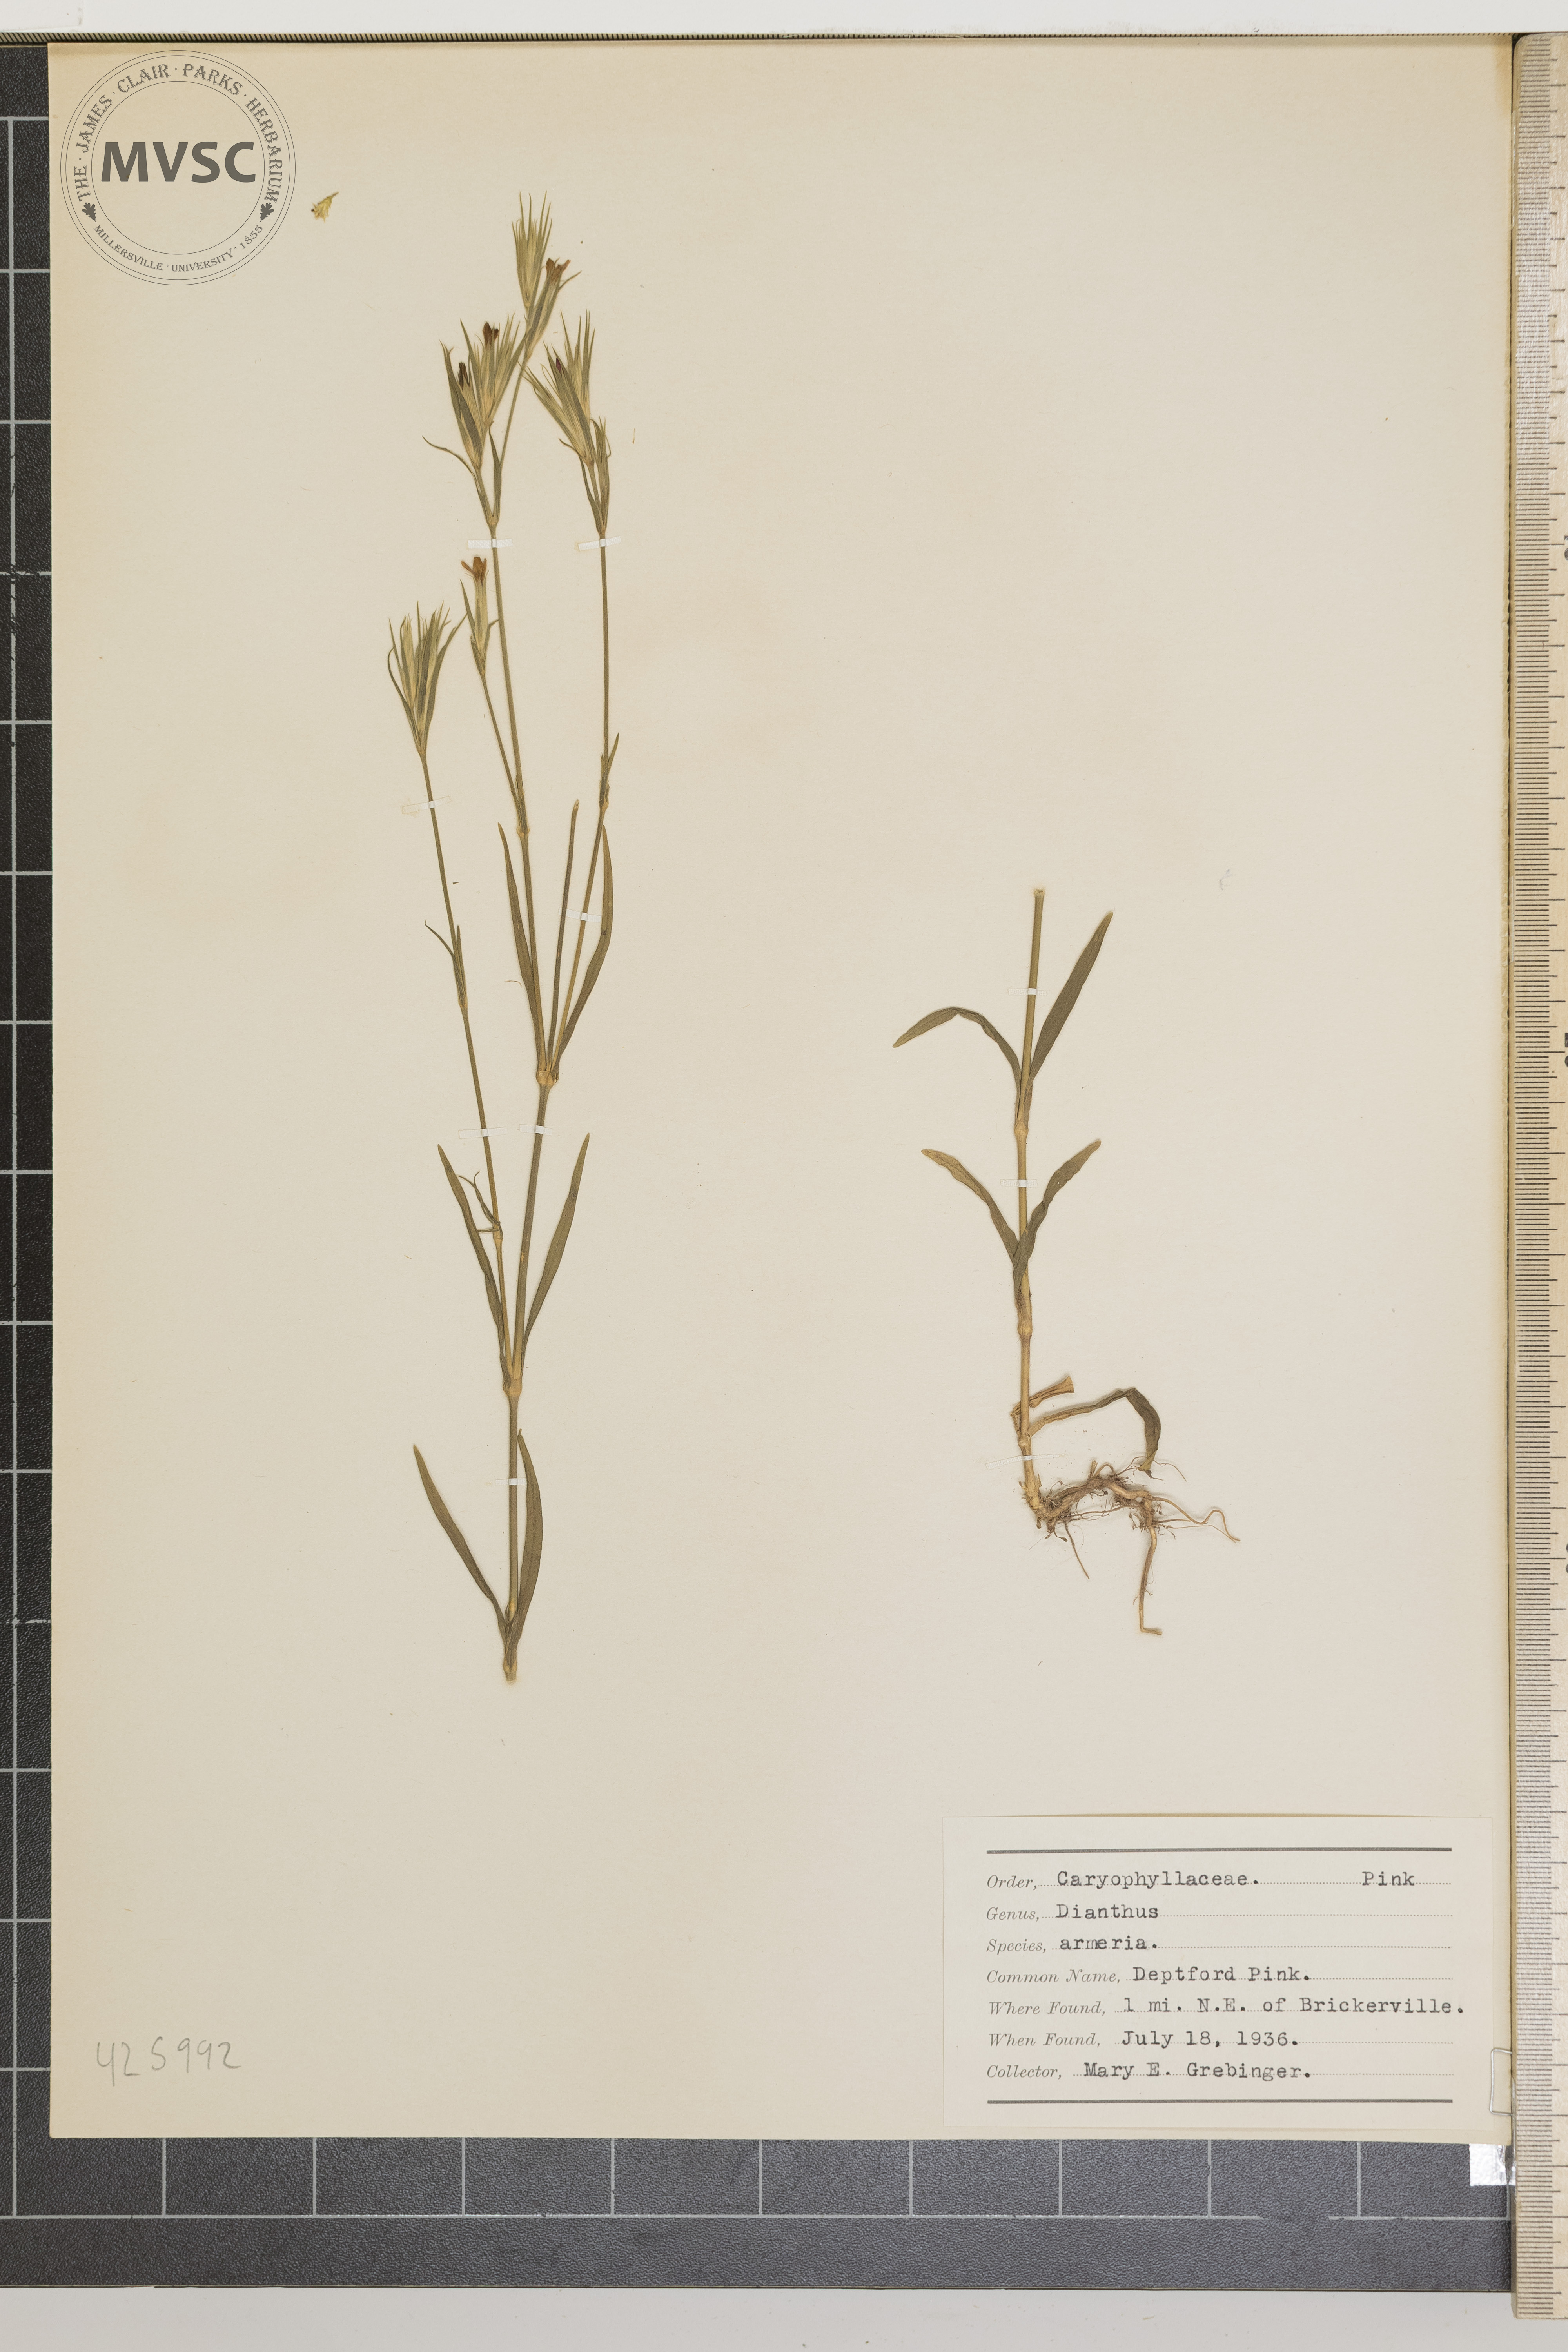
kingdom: Plantae
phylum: Tracheophyta
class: Magnoliopsida
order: Caryophyllales
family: Caryophyllaceae
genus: Dianthus
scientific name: Dianthus armeria
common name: Deptford pink
